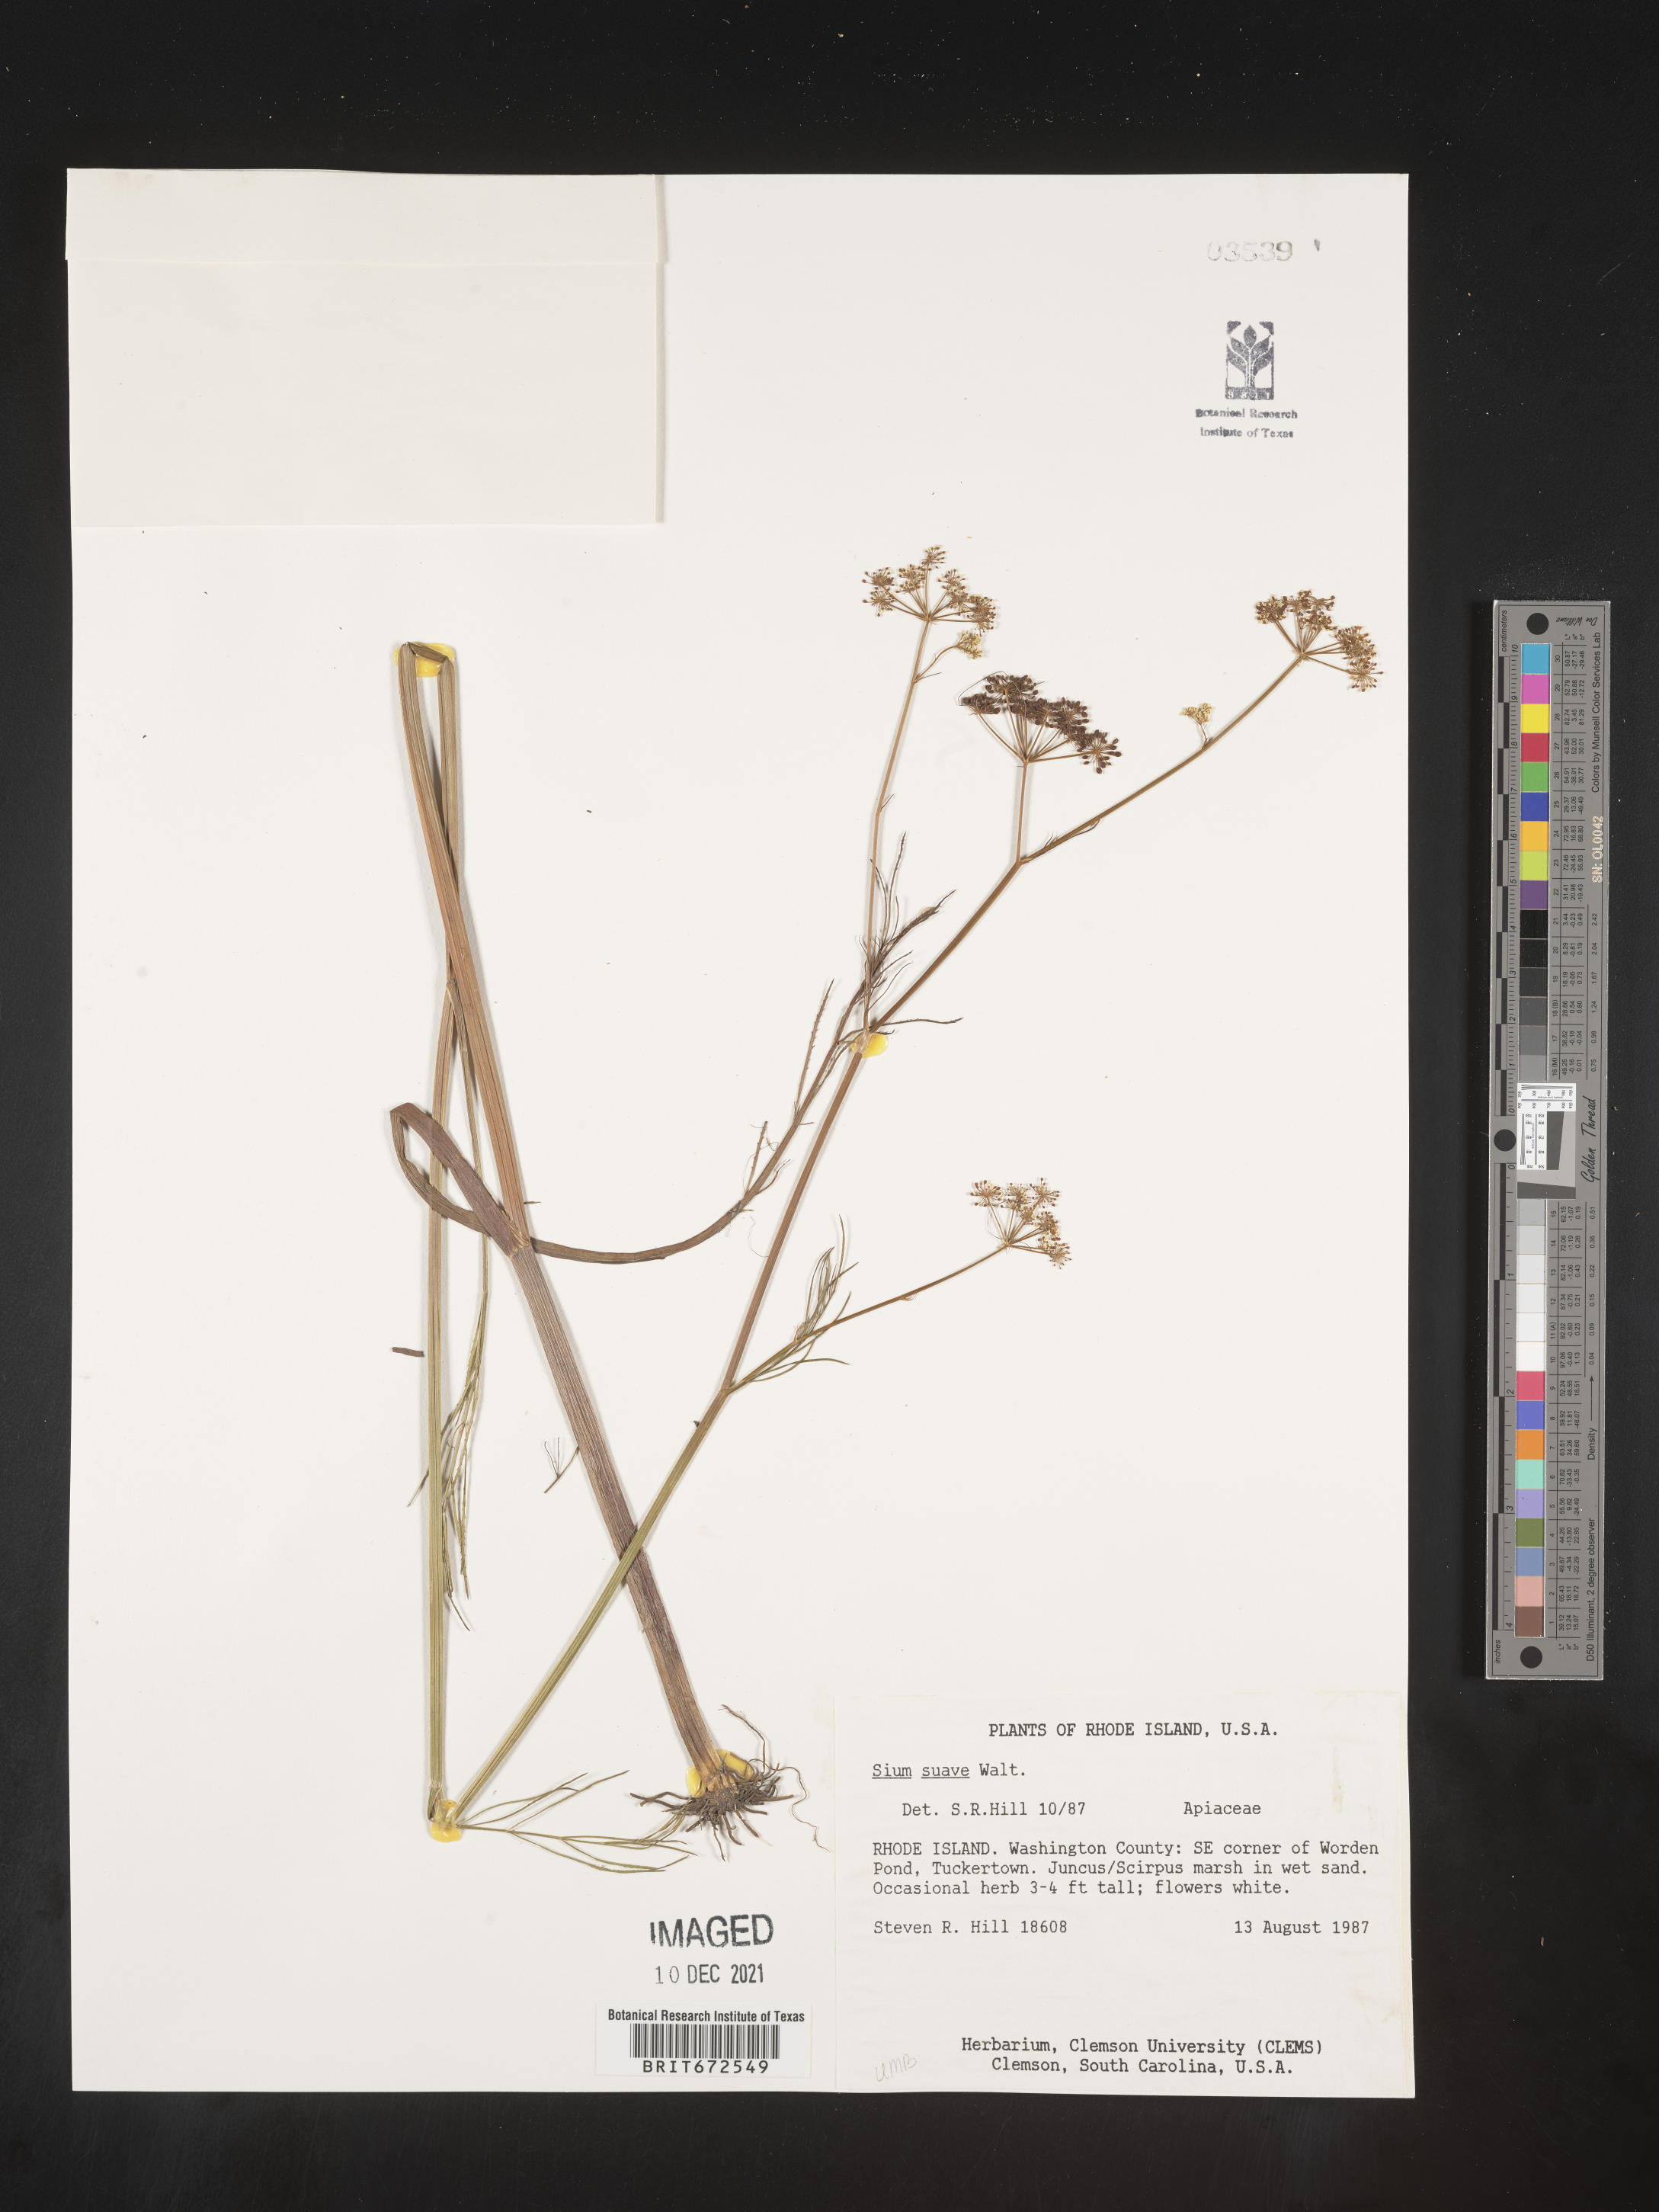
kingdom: Plantae
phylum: Tracheophyta
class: Magnoliopsida
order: Apiales
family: Apiaceae
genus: Sium
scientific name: Sium suave
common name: Hemlock water-parsnip
